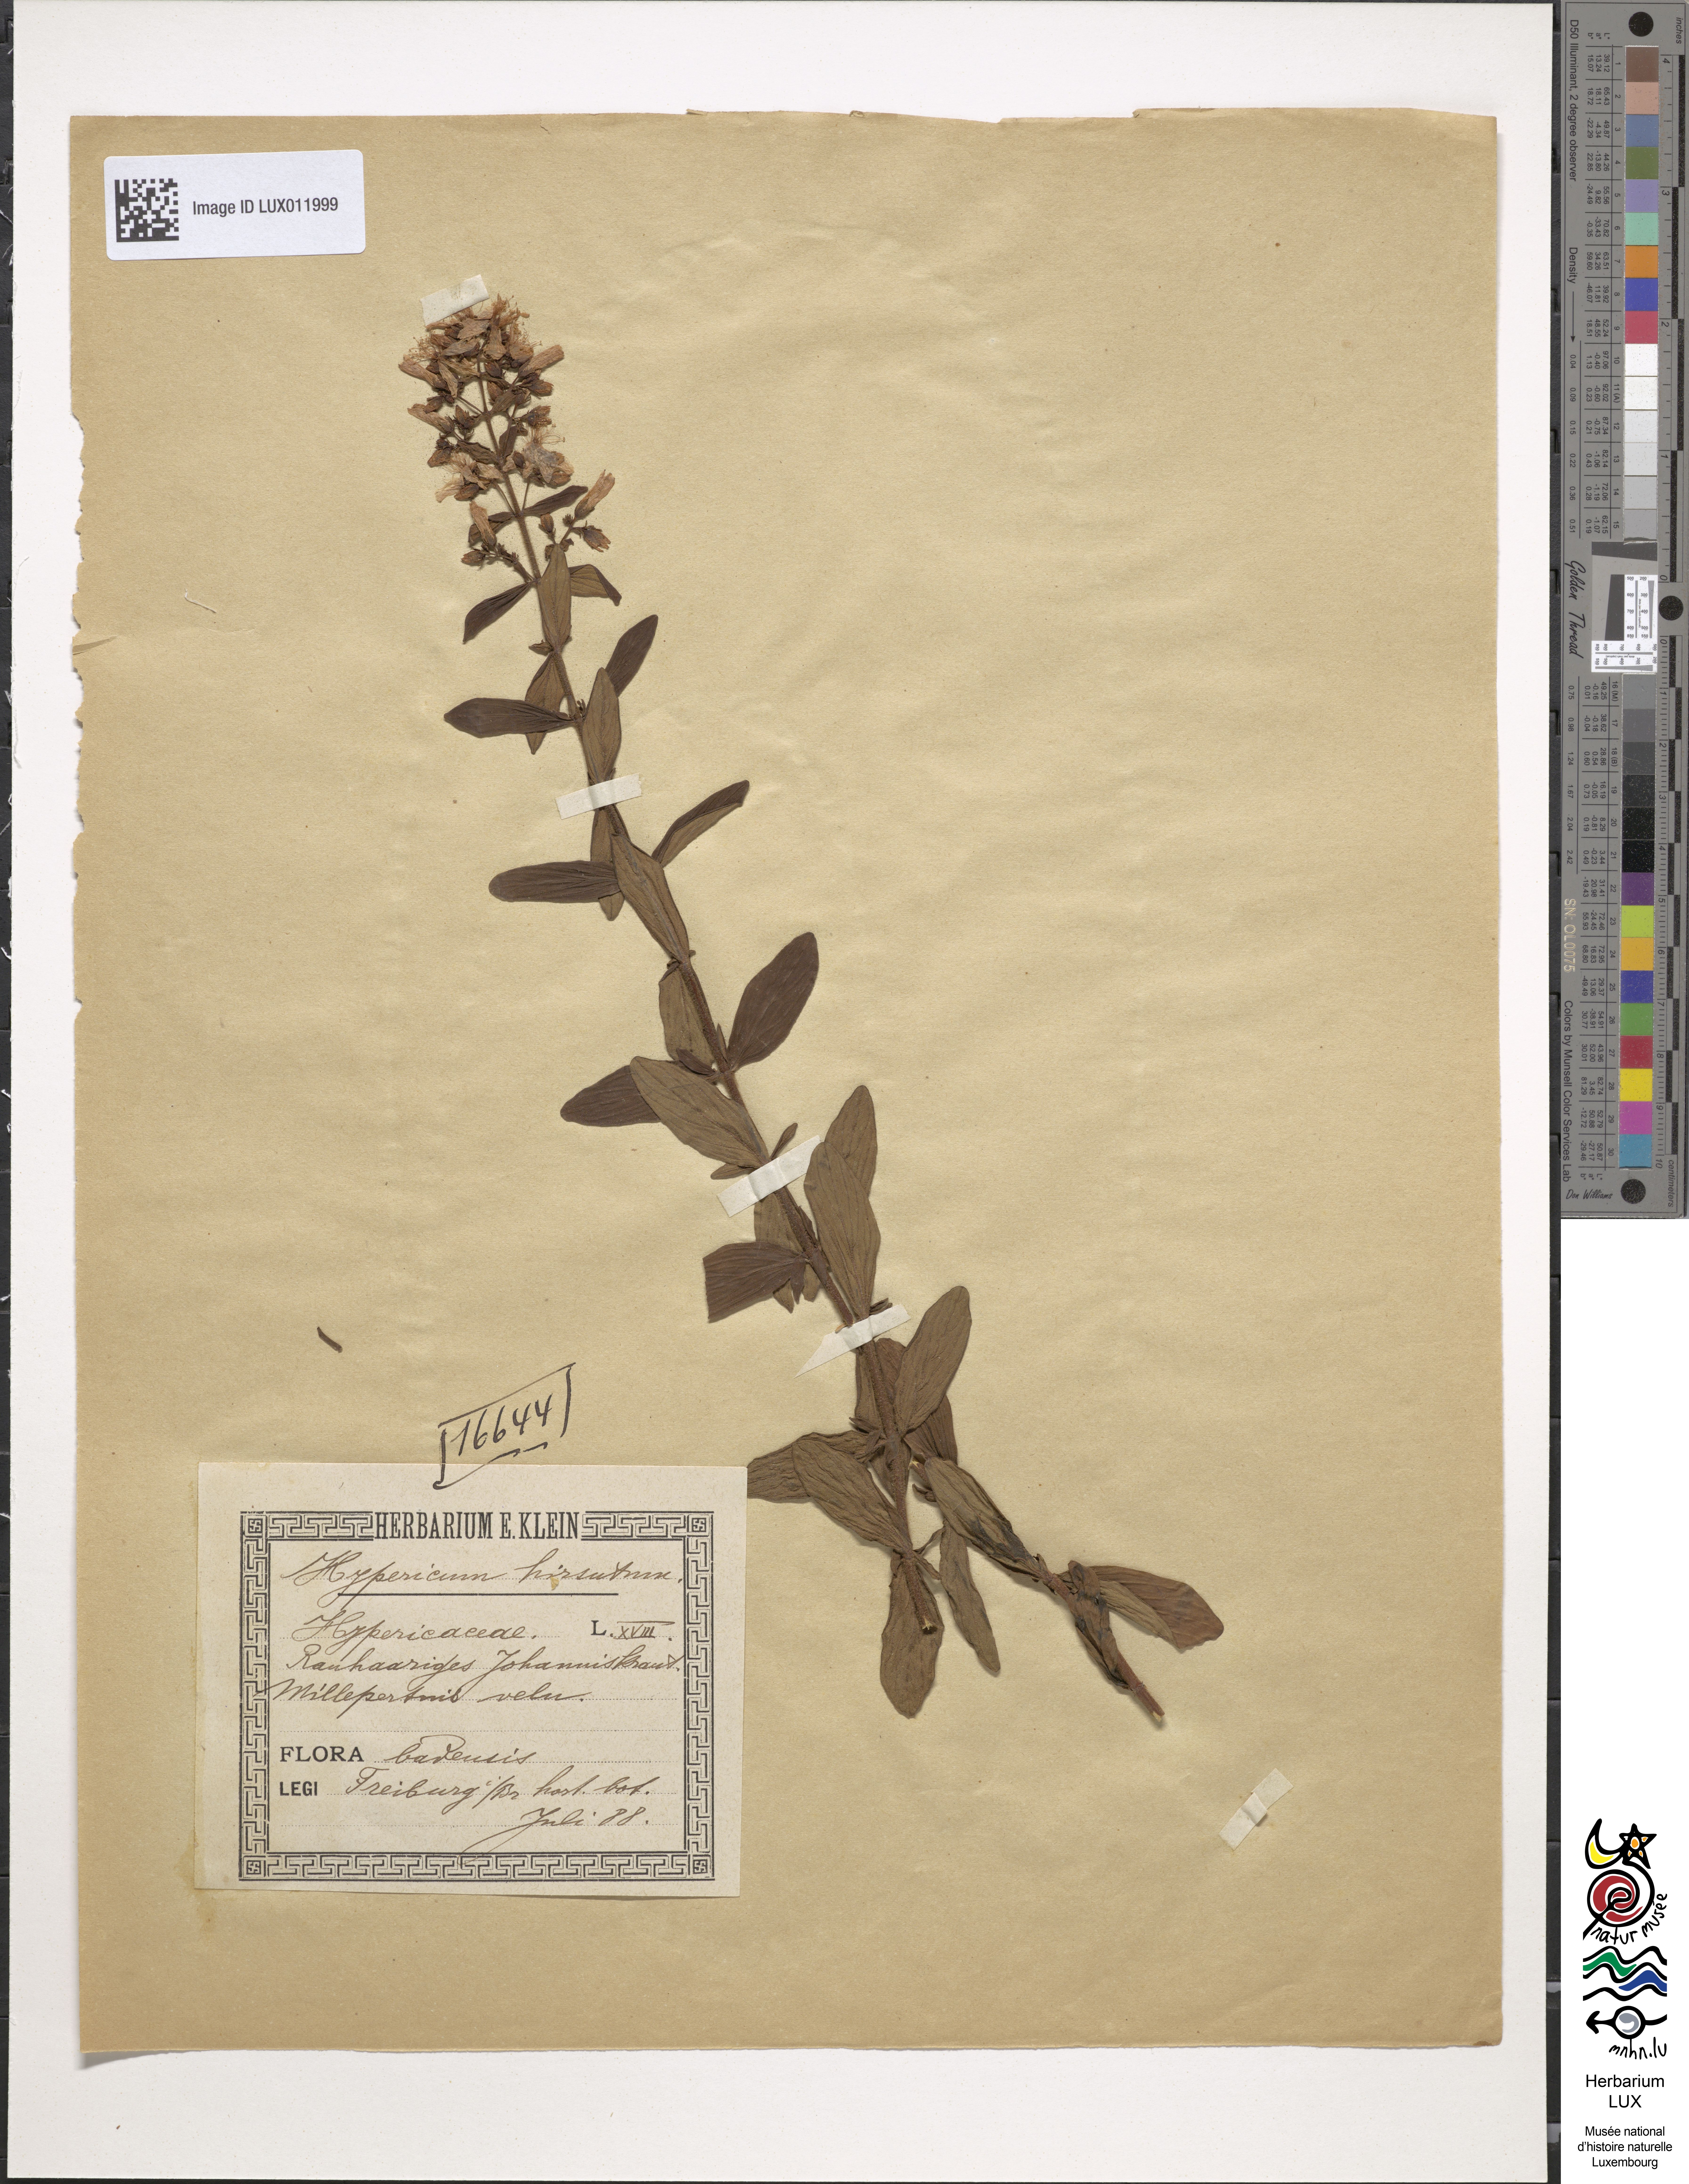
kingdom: Plantae
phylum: Tracheophyta
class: Magnoliopsida
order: Malpighiales
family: Hypericaceae
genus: Hypericum
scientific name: Hypericum hirsutum
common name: Hairy st. john's-wort
